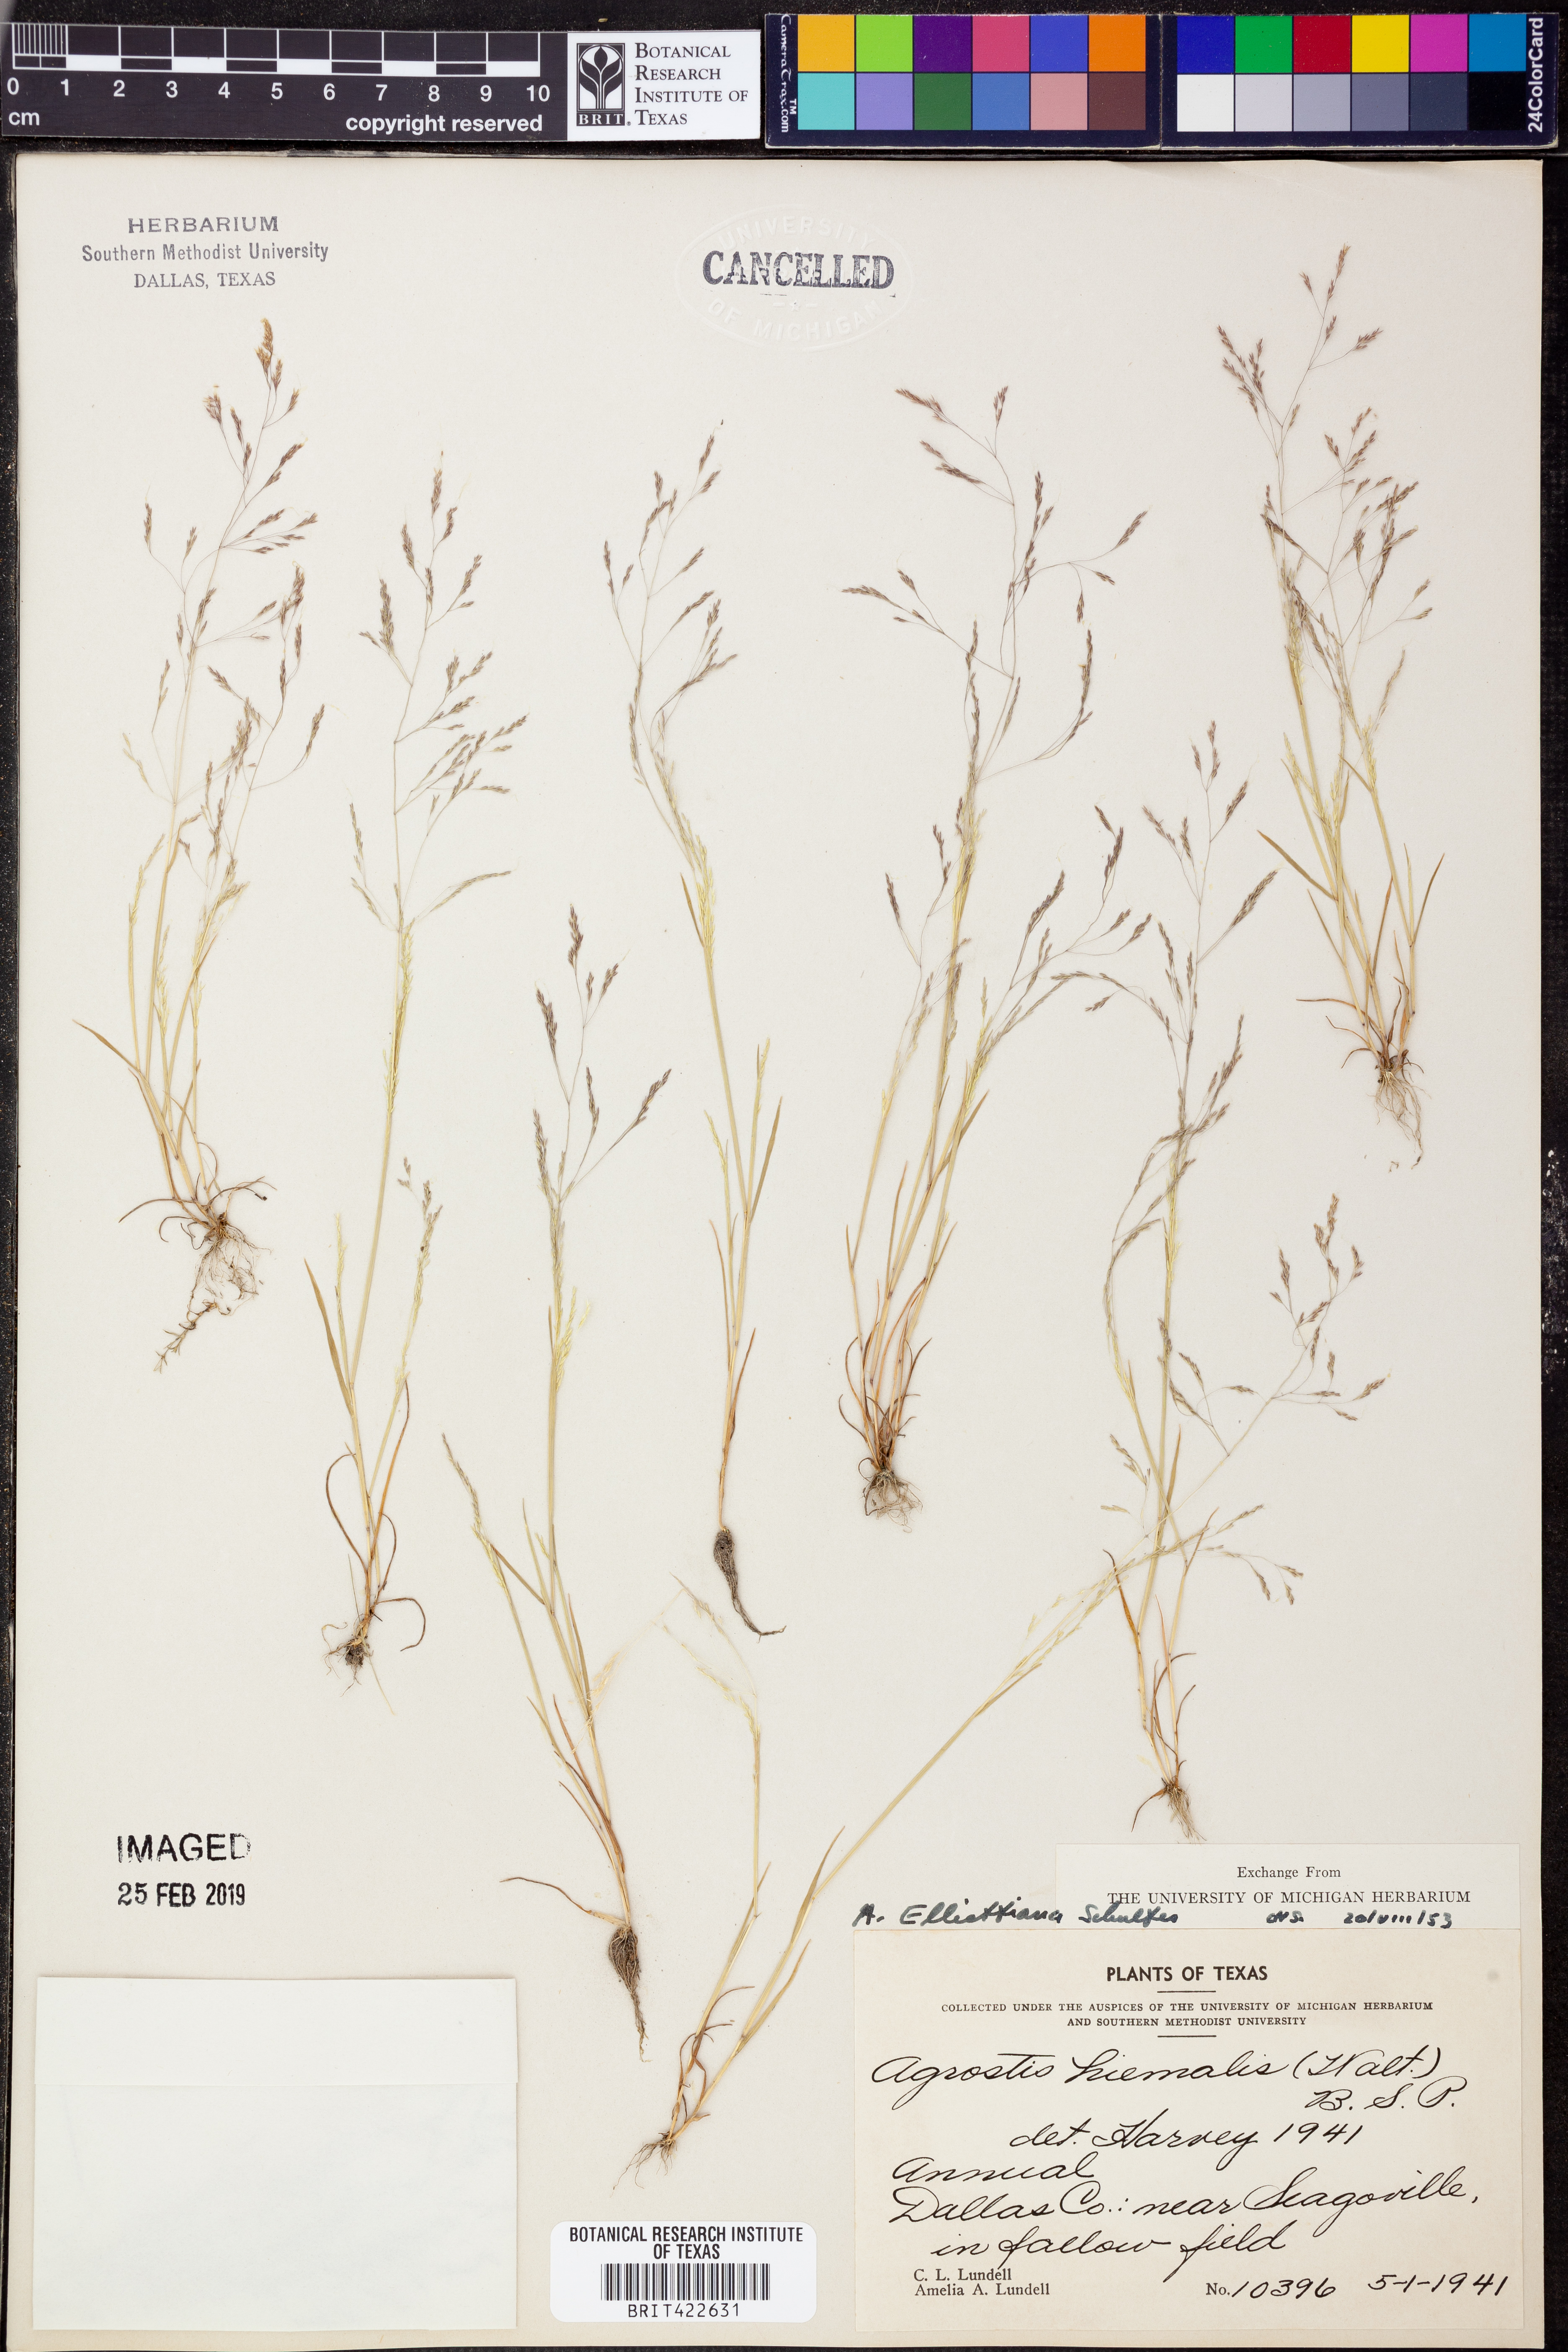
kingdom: Plantae
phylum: Tracheophyta
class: Liliopsida
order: Poales
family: Poaceae
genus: Agrostis
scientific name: Agrostis elliottiana
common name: Elliott's bent
